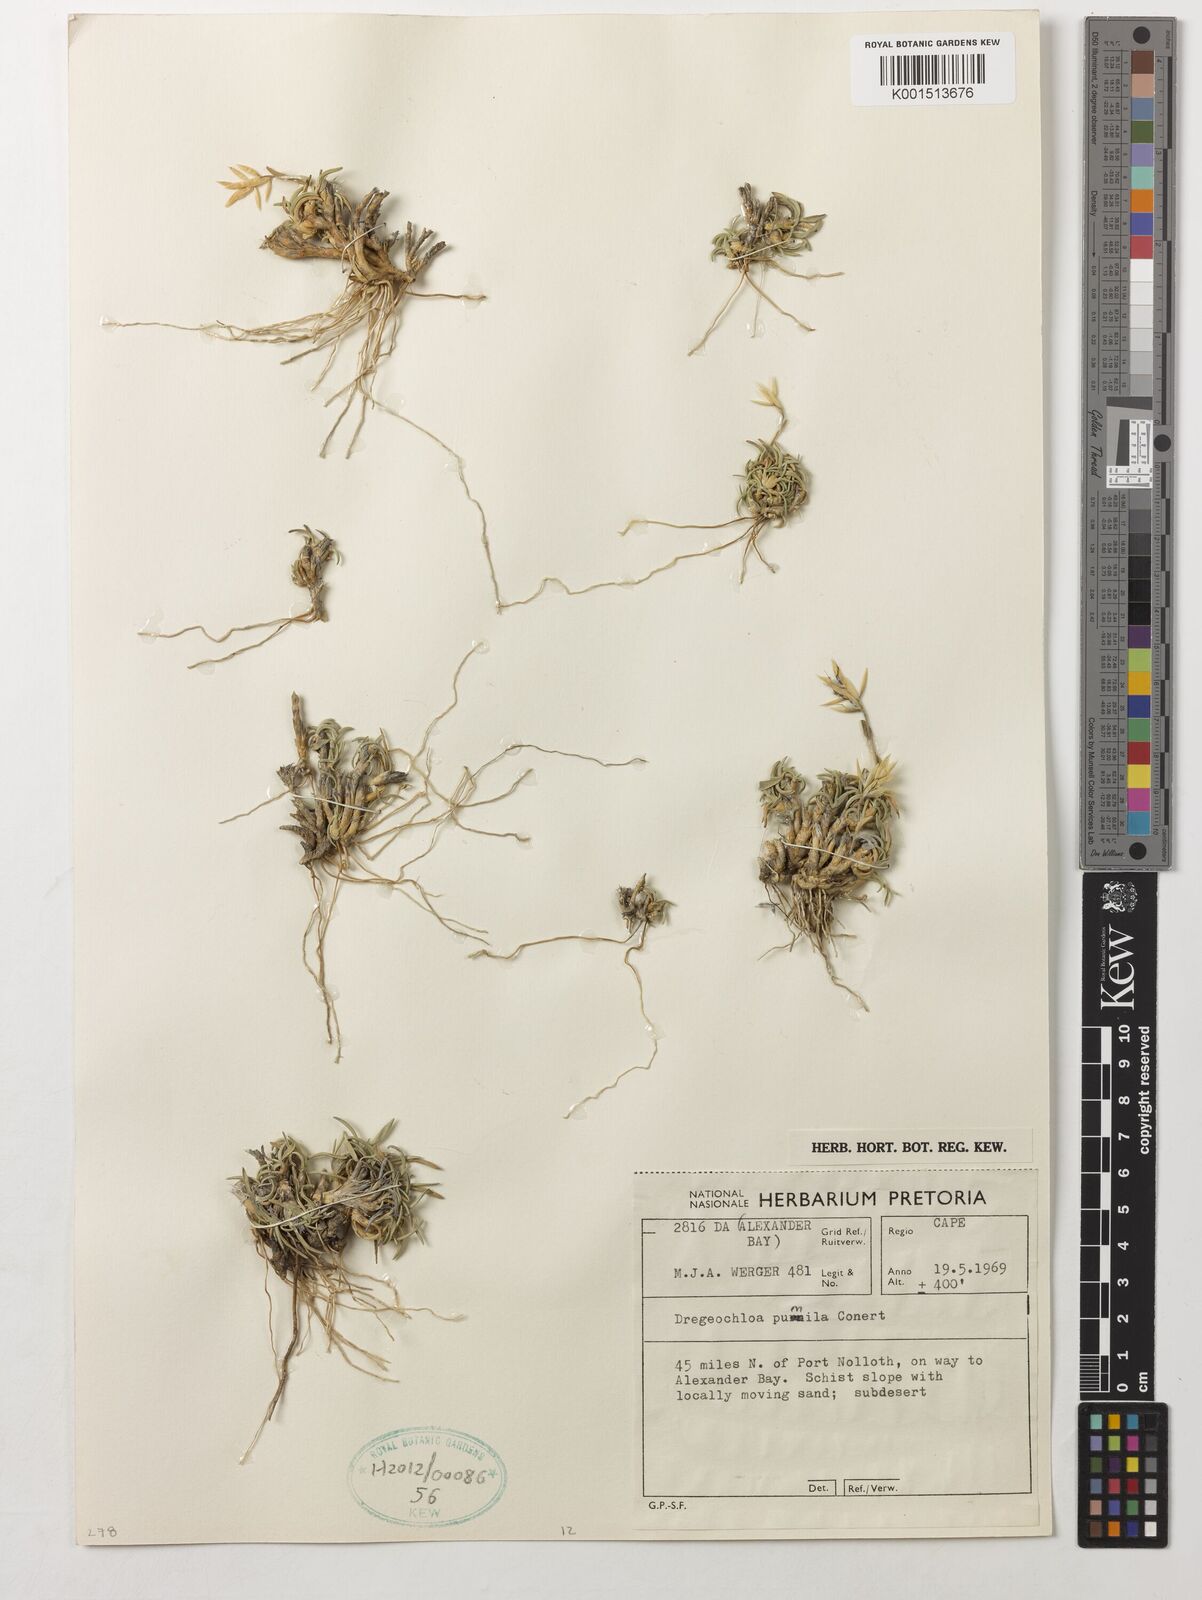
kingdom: Plantae
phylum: Tracheophyta
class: Liliopsida
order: Poales
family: Poaceae
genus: Dregeochloa
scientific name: Dregeochloa pumila
